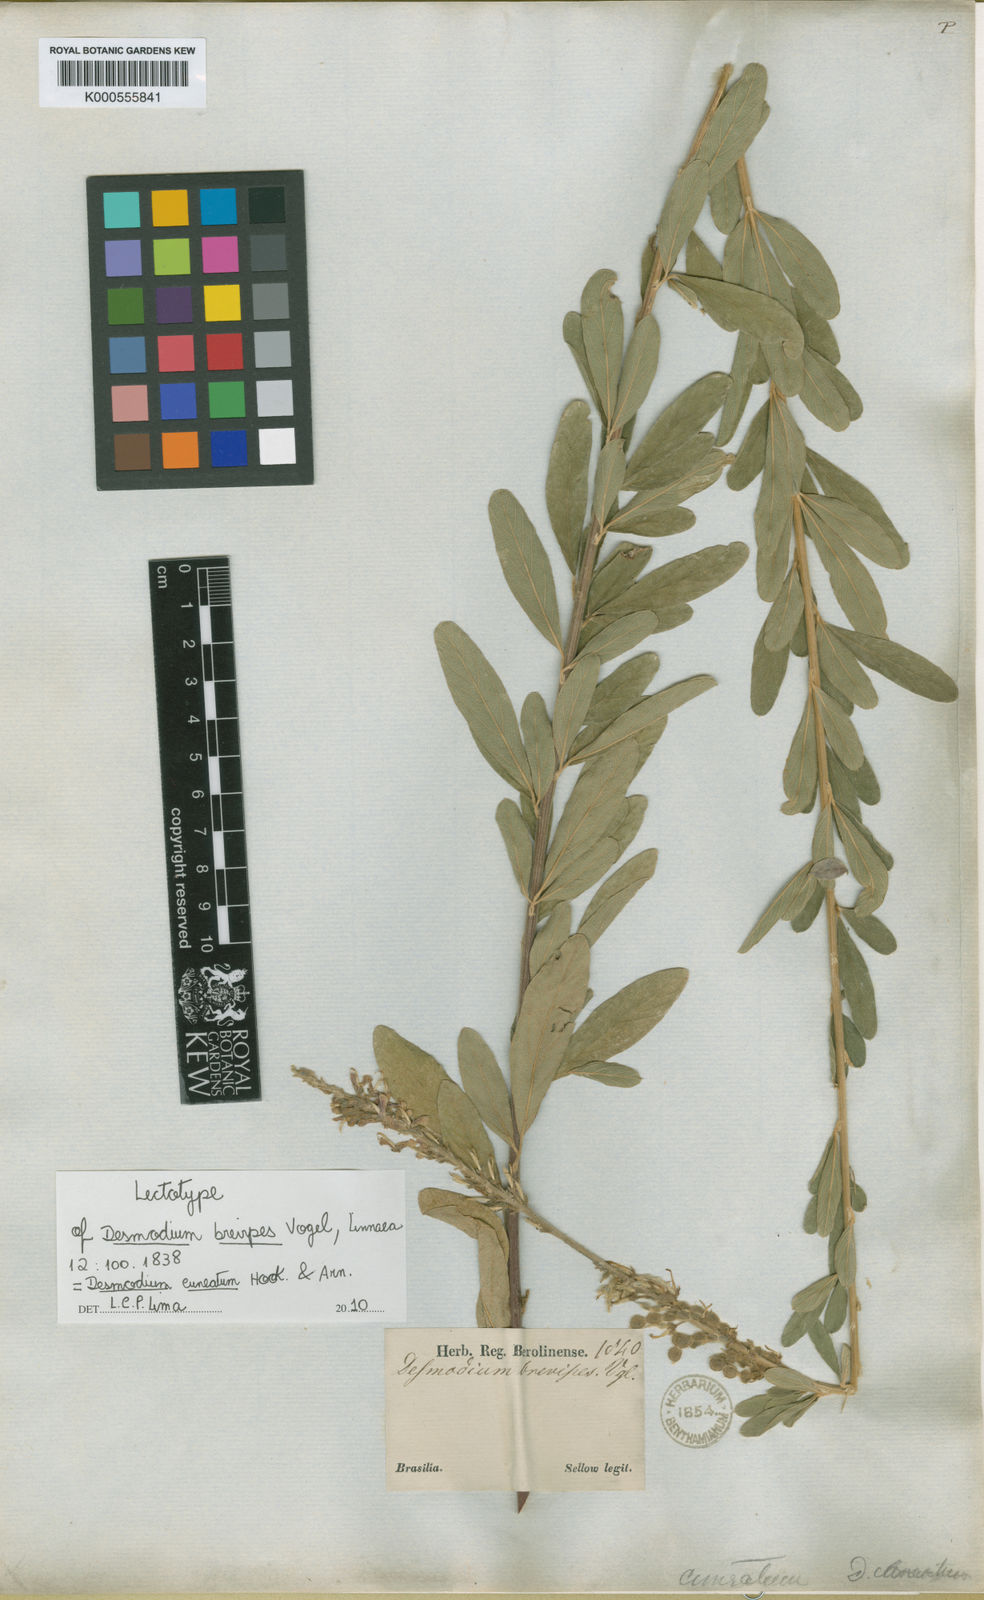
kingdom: Plantae
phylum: Tracheophyta
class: Magnoliopsida
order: Fabales
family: Fabaceae
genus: Desmodium
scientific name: Desmodium cuneatum
